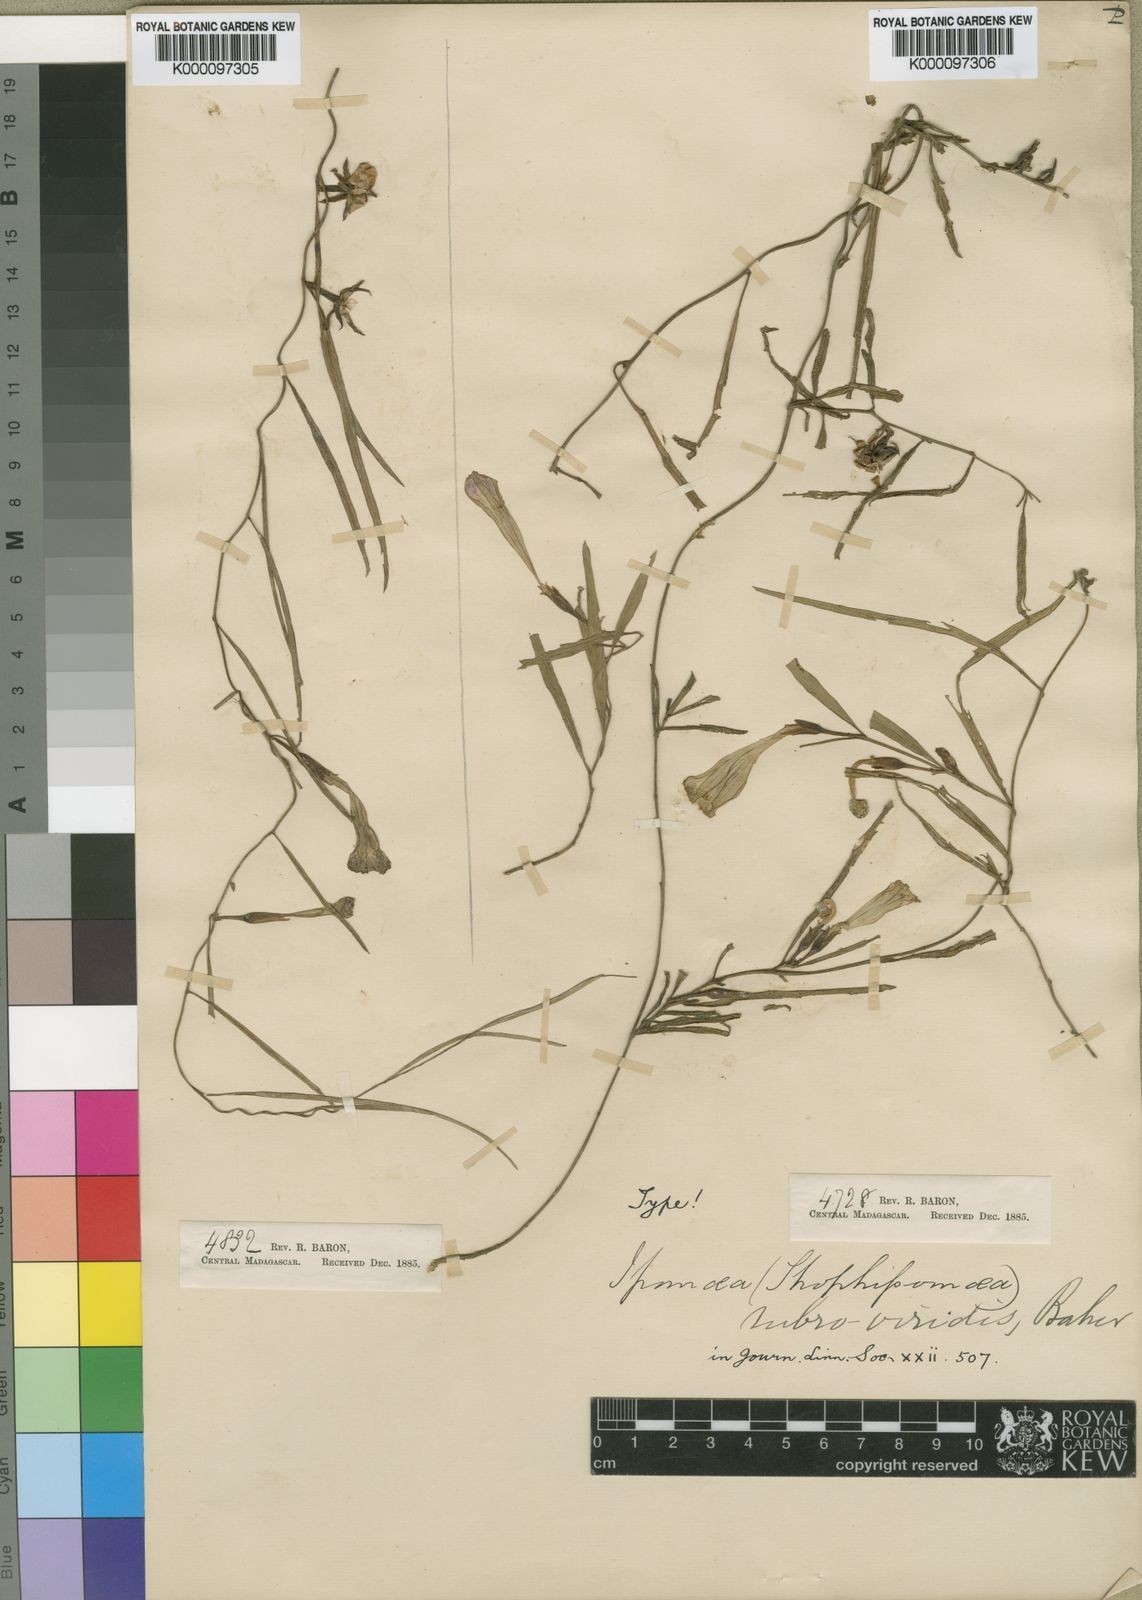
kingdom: Plantae
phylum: Tracheophyta
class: Magnoliopsida
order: Solanales
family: Convolvulaceae
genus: Ipomoea
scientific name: Ipomoea bolusiana
